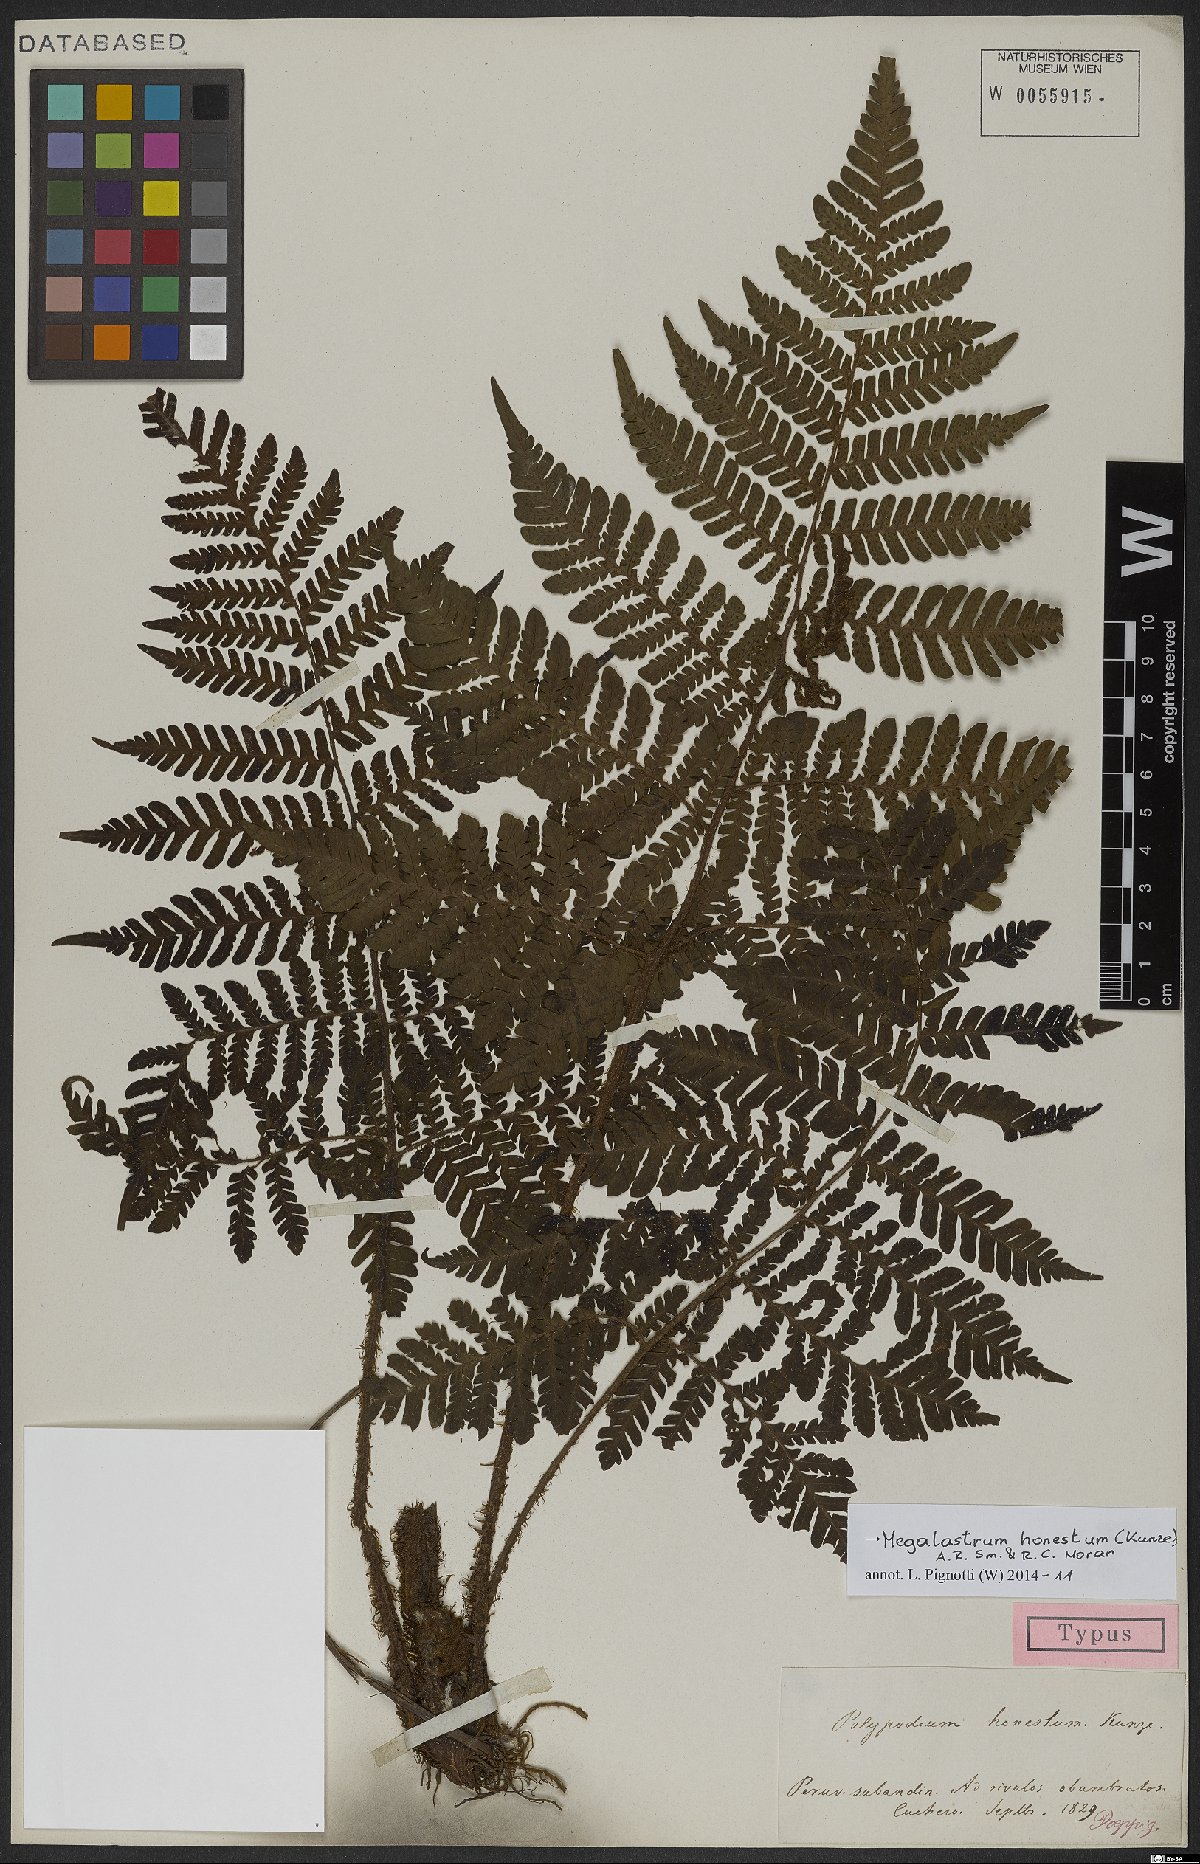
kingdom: Plantae
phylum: Tracheophyta
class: Polypodiopsida
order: Polypodiales
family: Dryopteridaceae
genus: Megalastrum
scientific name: Megalastrum honestum
